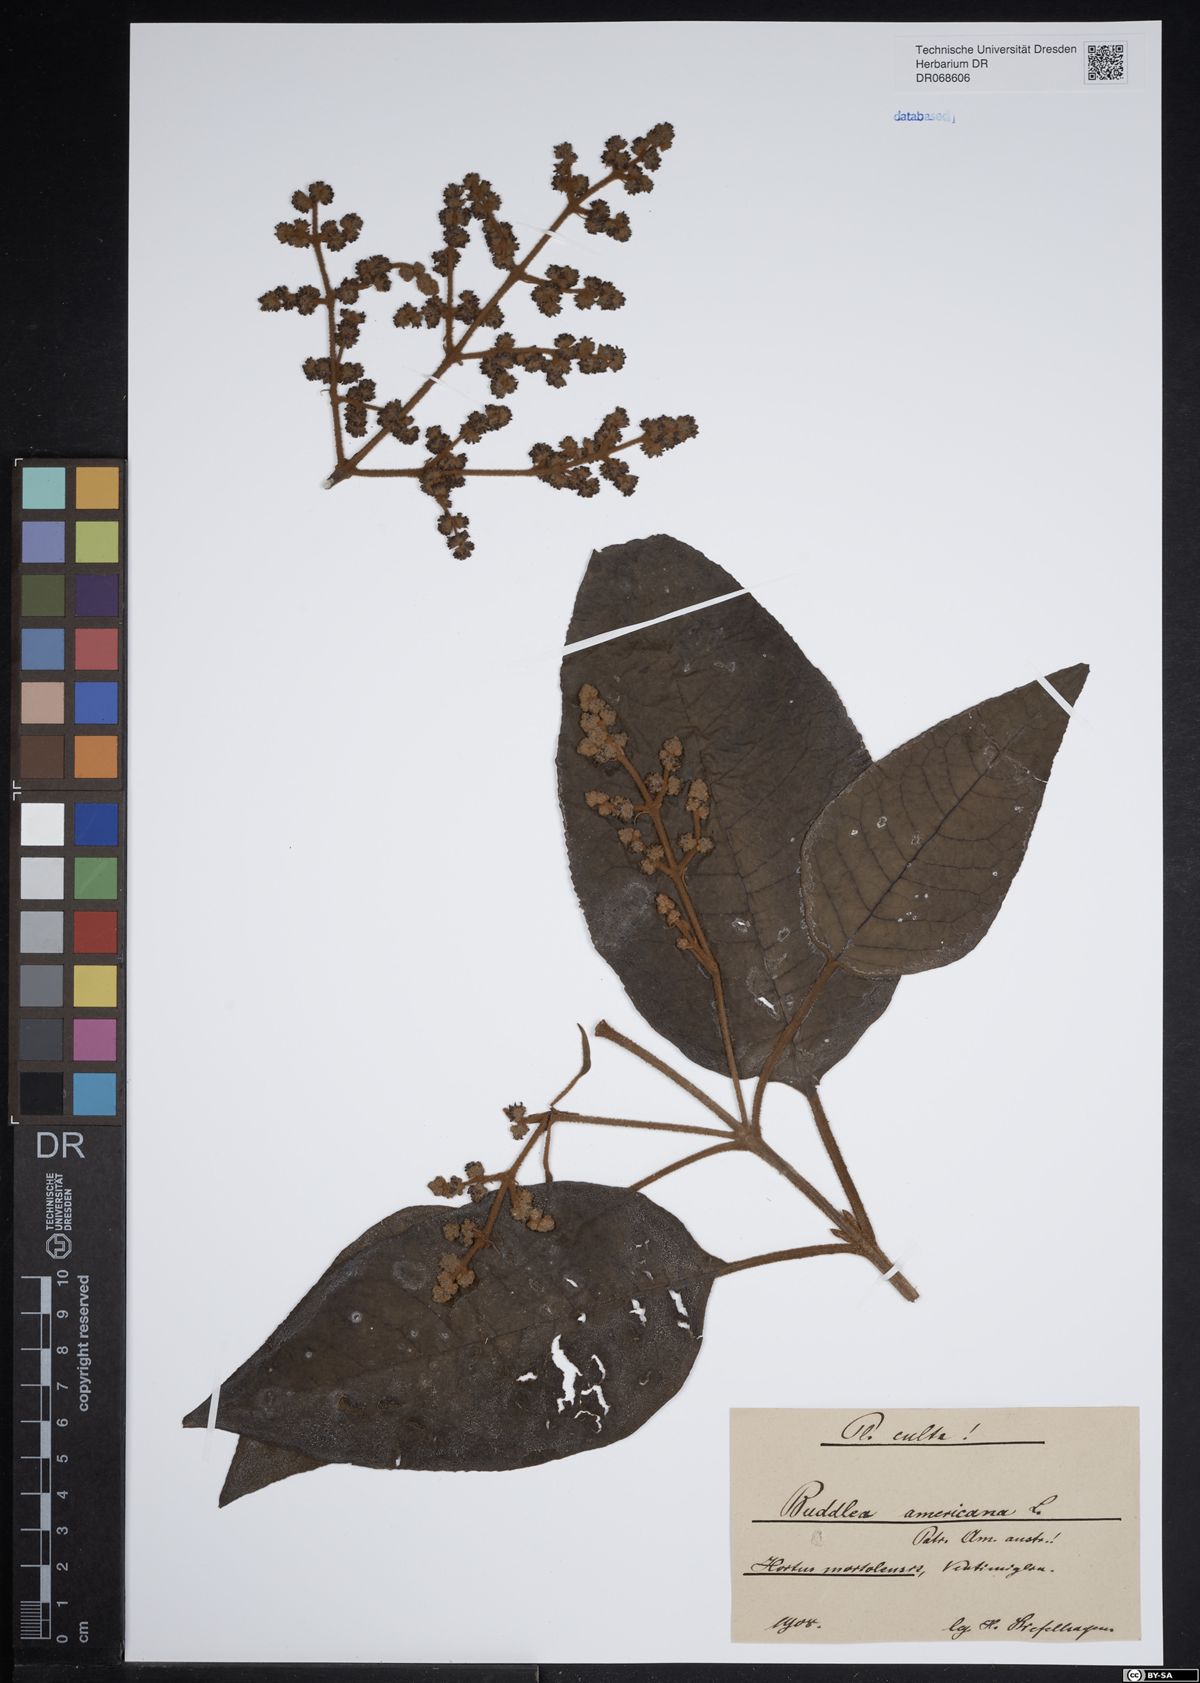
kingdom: Plantae
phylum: Tracheophyta
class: Magnoliopsida
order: Lamiales
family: Scrophulariaceae
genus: Buddleja
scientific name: Buddleja americana
